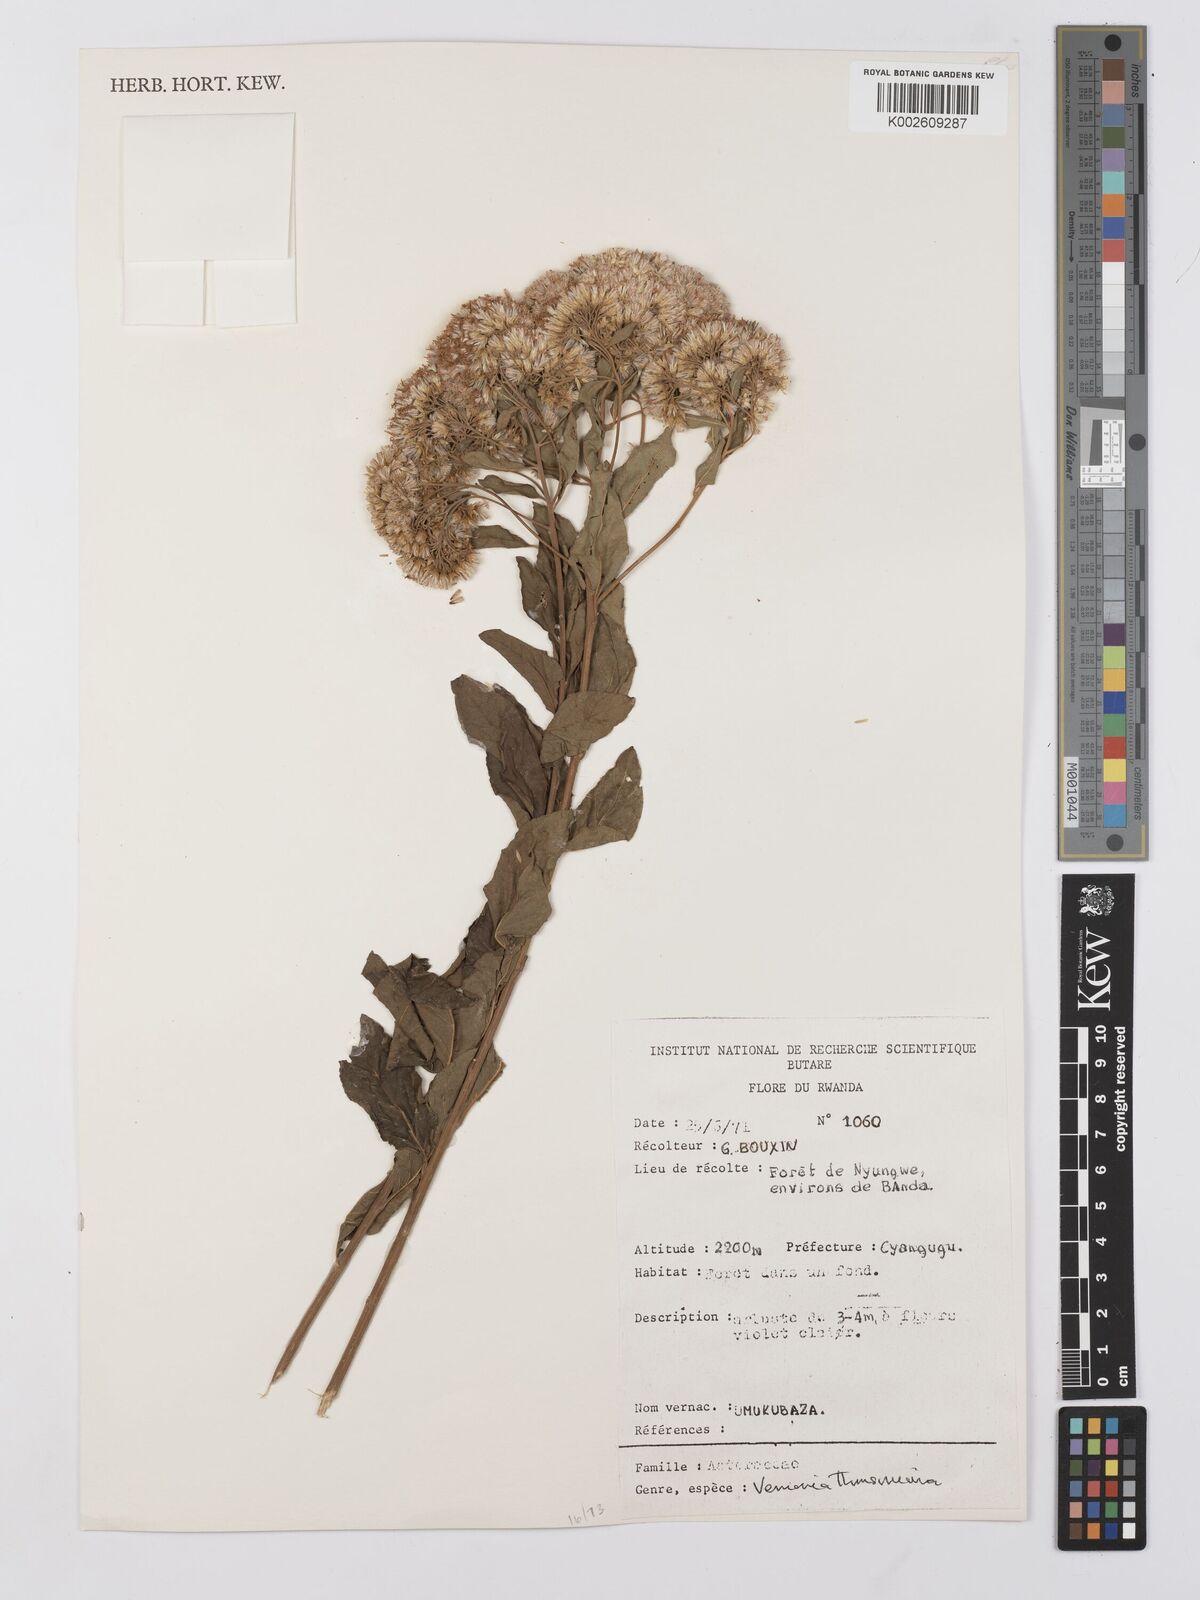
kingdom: Plantae
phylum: Tracheophyta
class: Magnoliopsida
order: Asterales
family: Asteraceae
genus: Gymnanthemum
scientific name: Gymnanthemum thomsonianum
